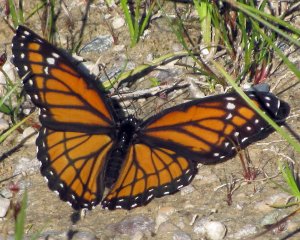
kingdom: Animalia
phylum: Arthropoda
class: Insecta
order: Lepidoptera
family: Nymphalidae
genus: Limenitis
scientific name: Limenitis archippus
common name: Viceroy
